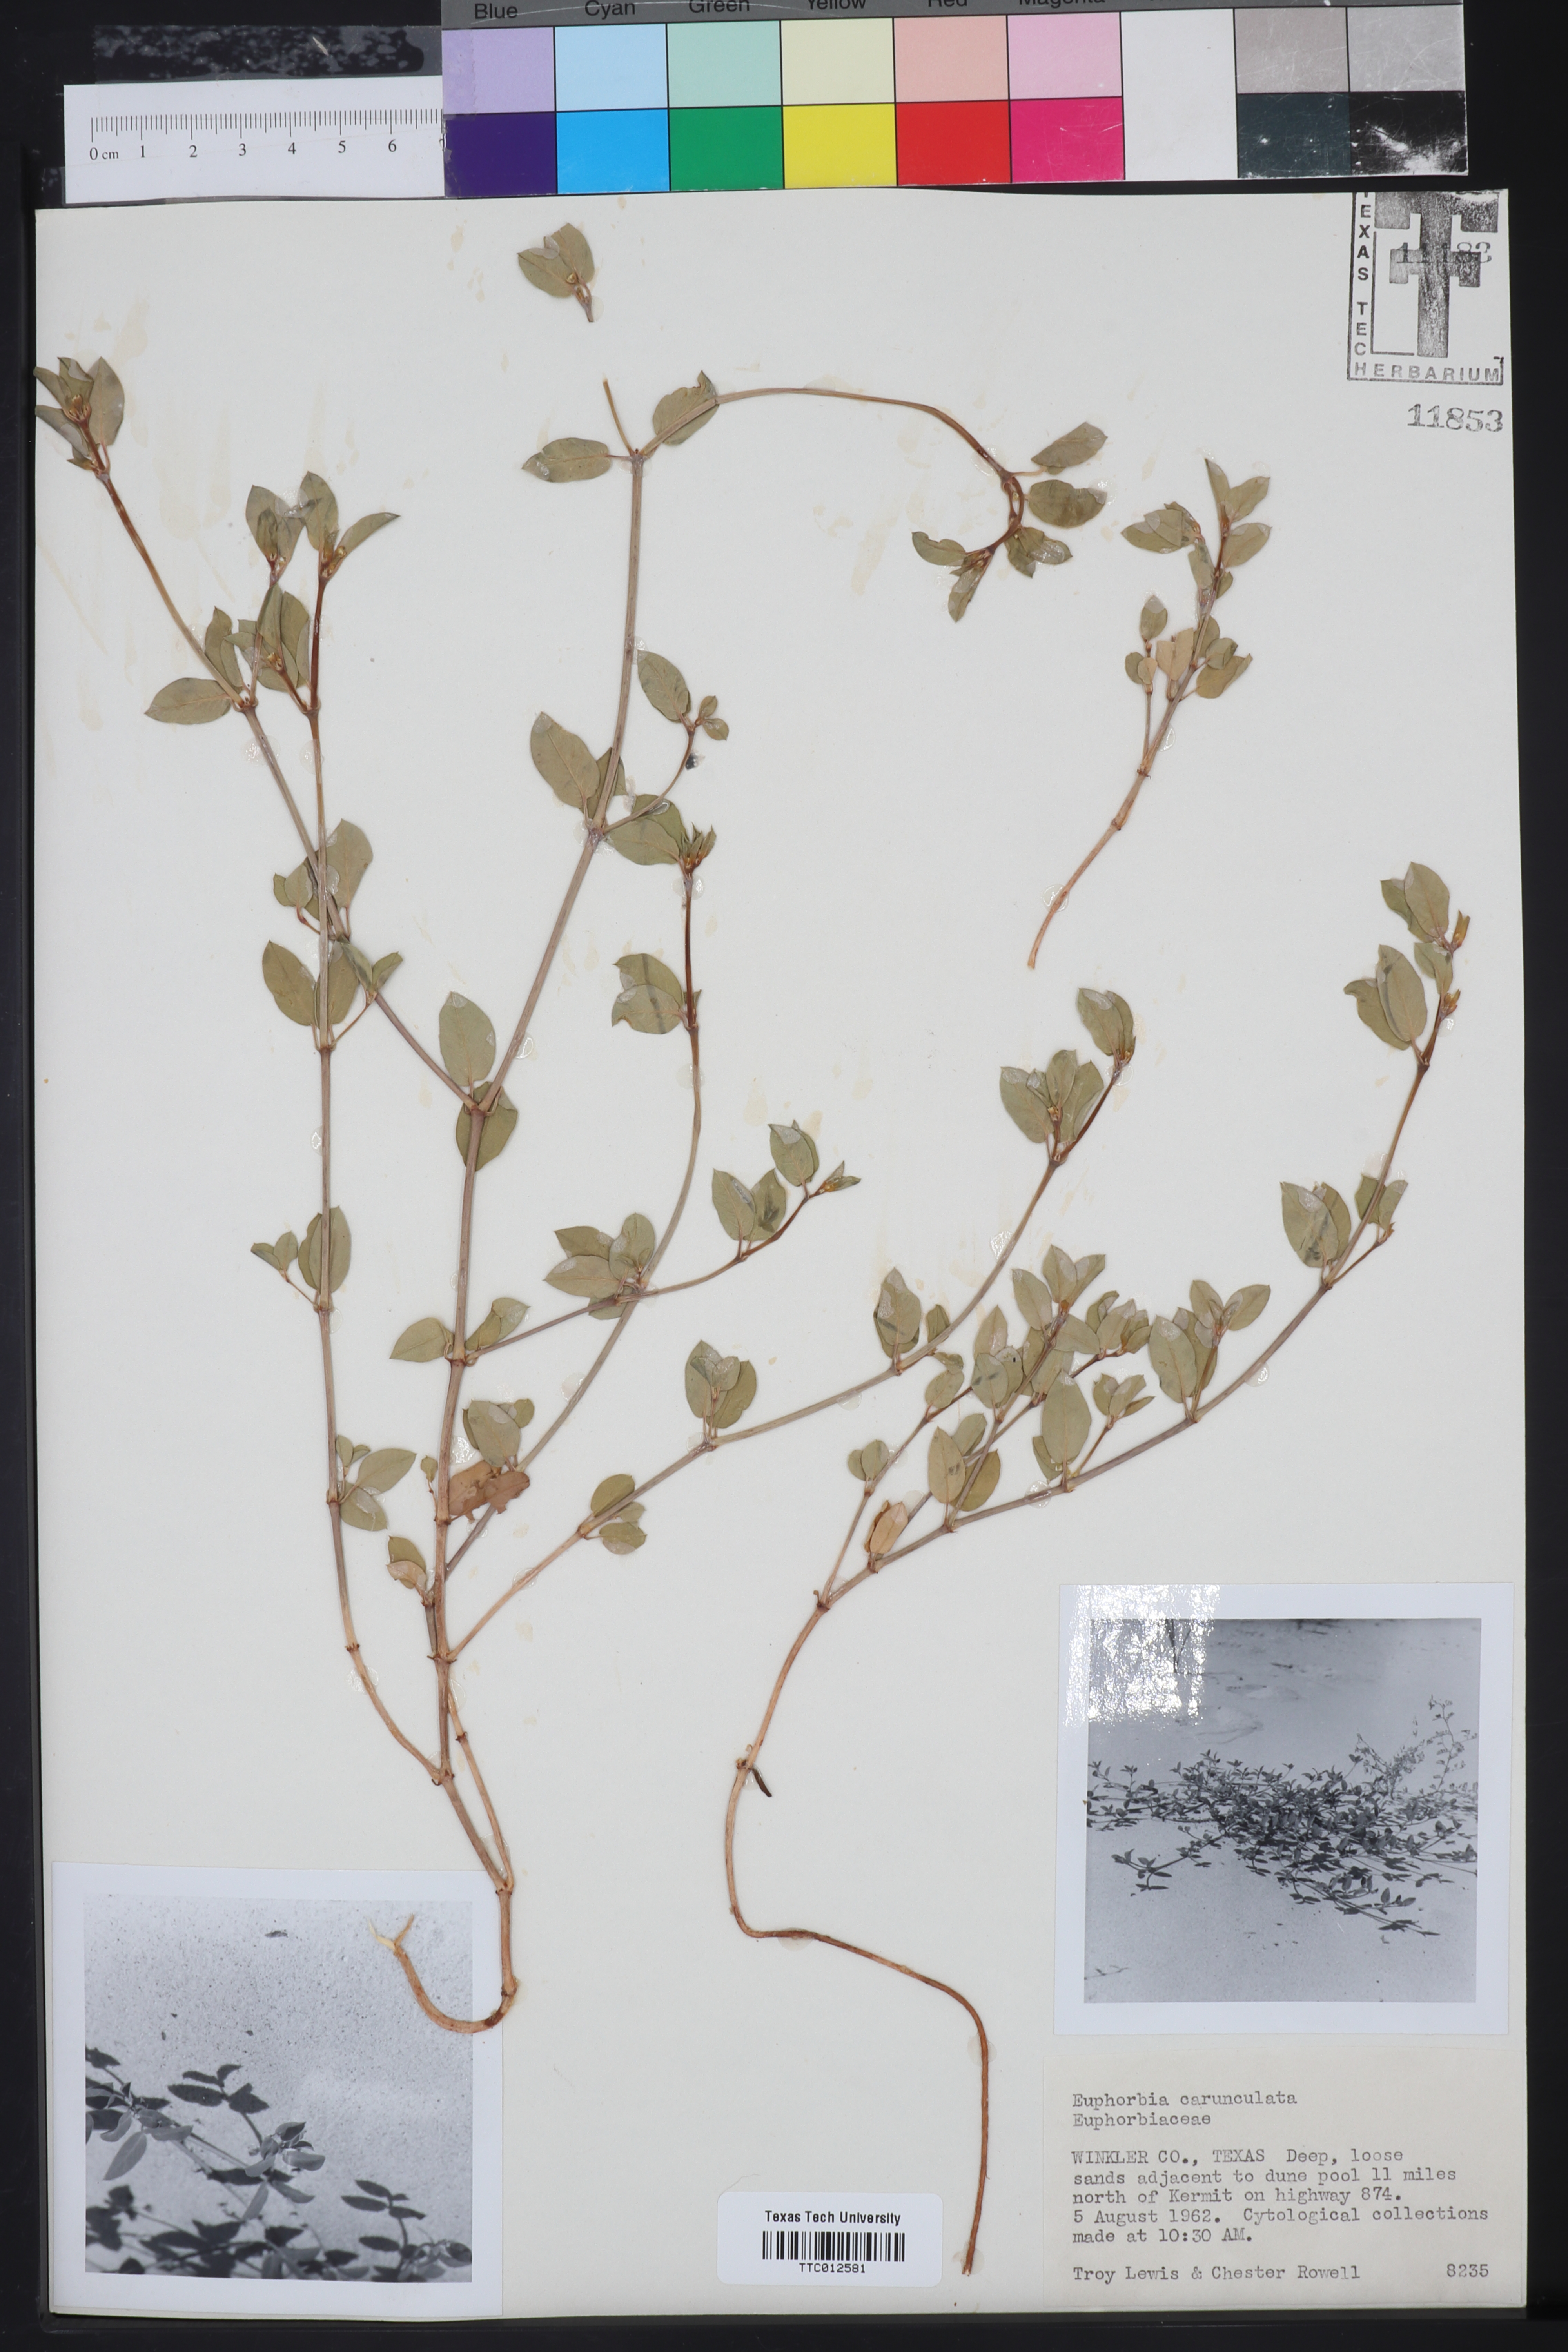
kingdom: Plantae
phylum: Tracheophyta
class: Magnoliopsida
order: Malpighiales
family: Euphorbiaceae
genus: Euphorbia
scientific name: Euphorbia carunculata
